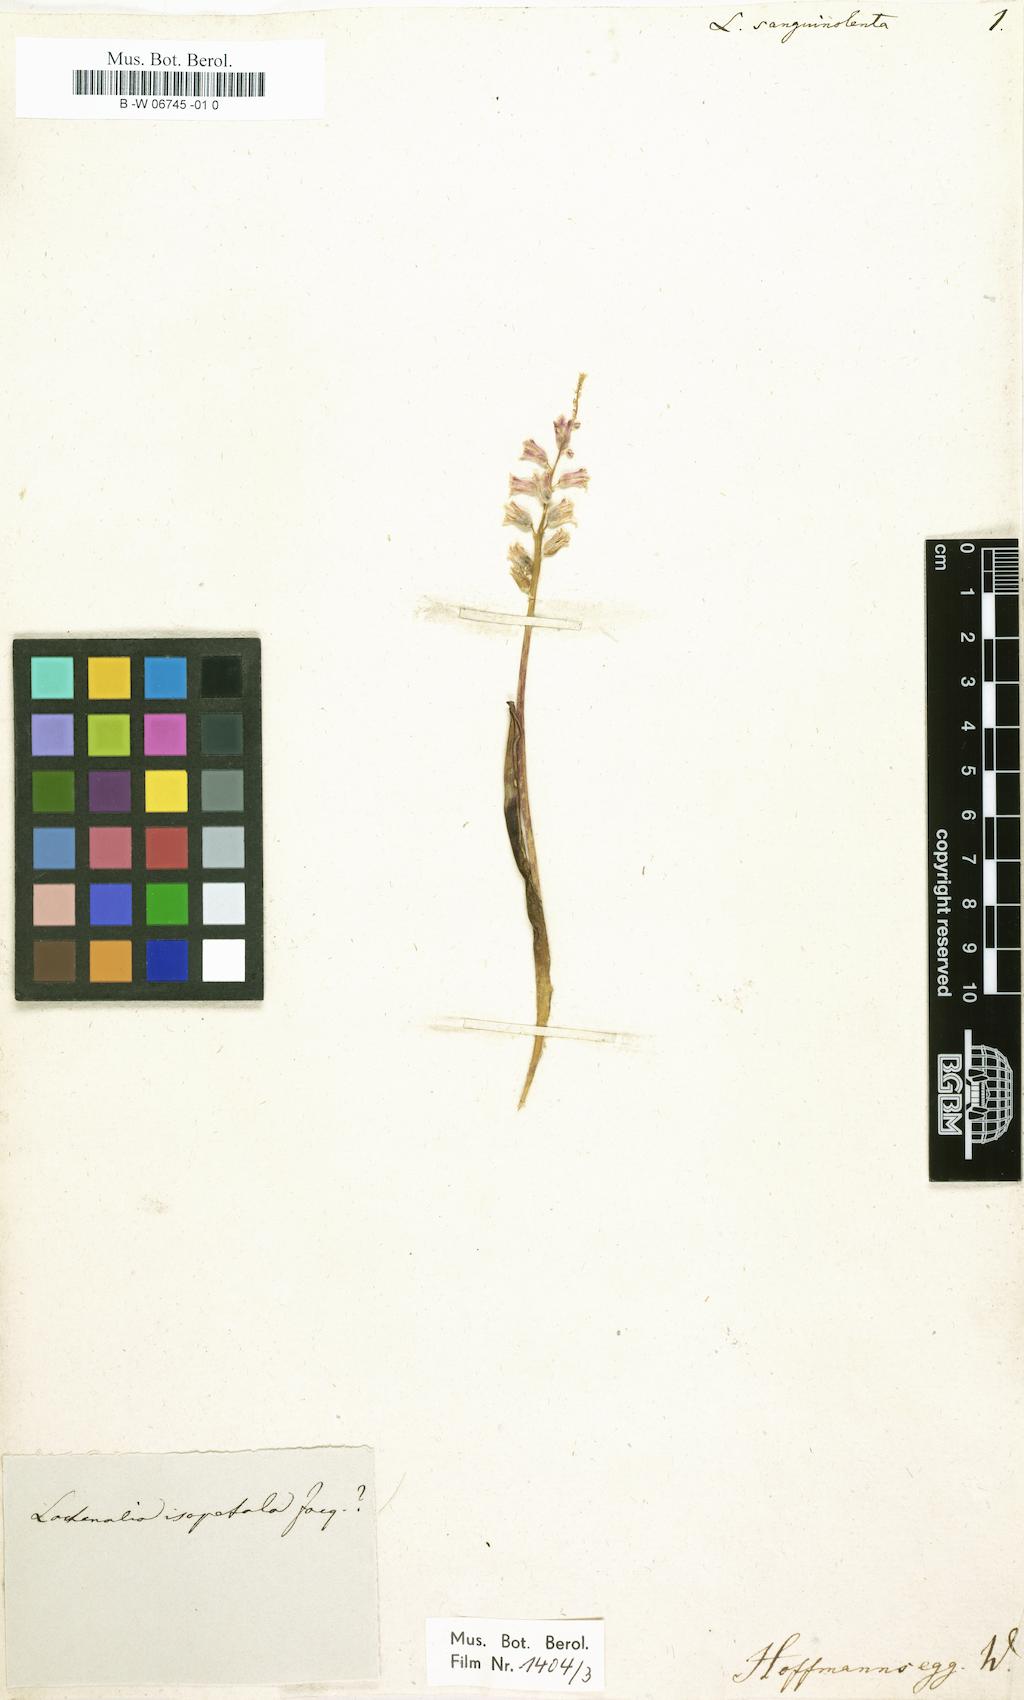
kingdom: Plantae
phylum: Tracheophyta
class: Liliopsida
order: Asparagales
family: Asparagaceae
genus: Lachenalia
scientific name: Lachenalia rosea
